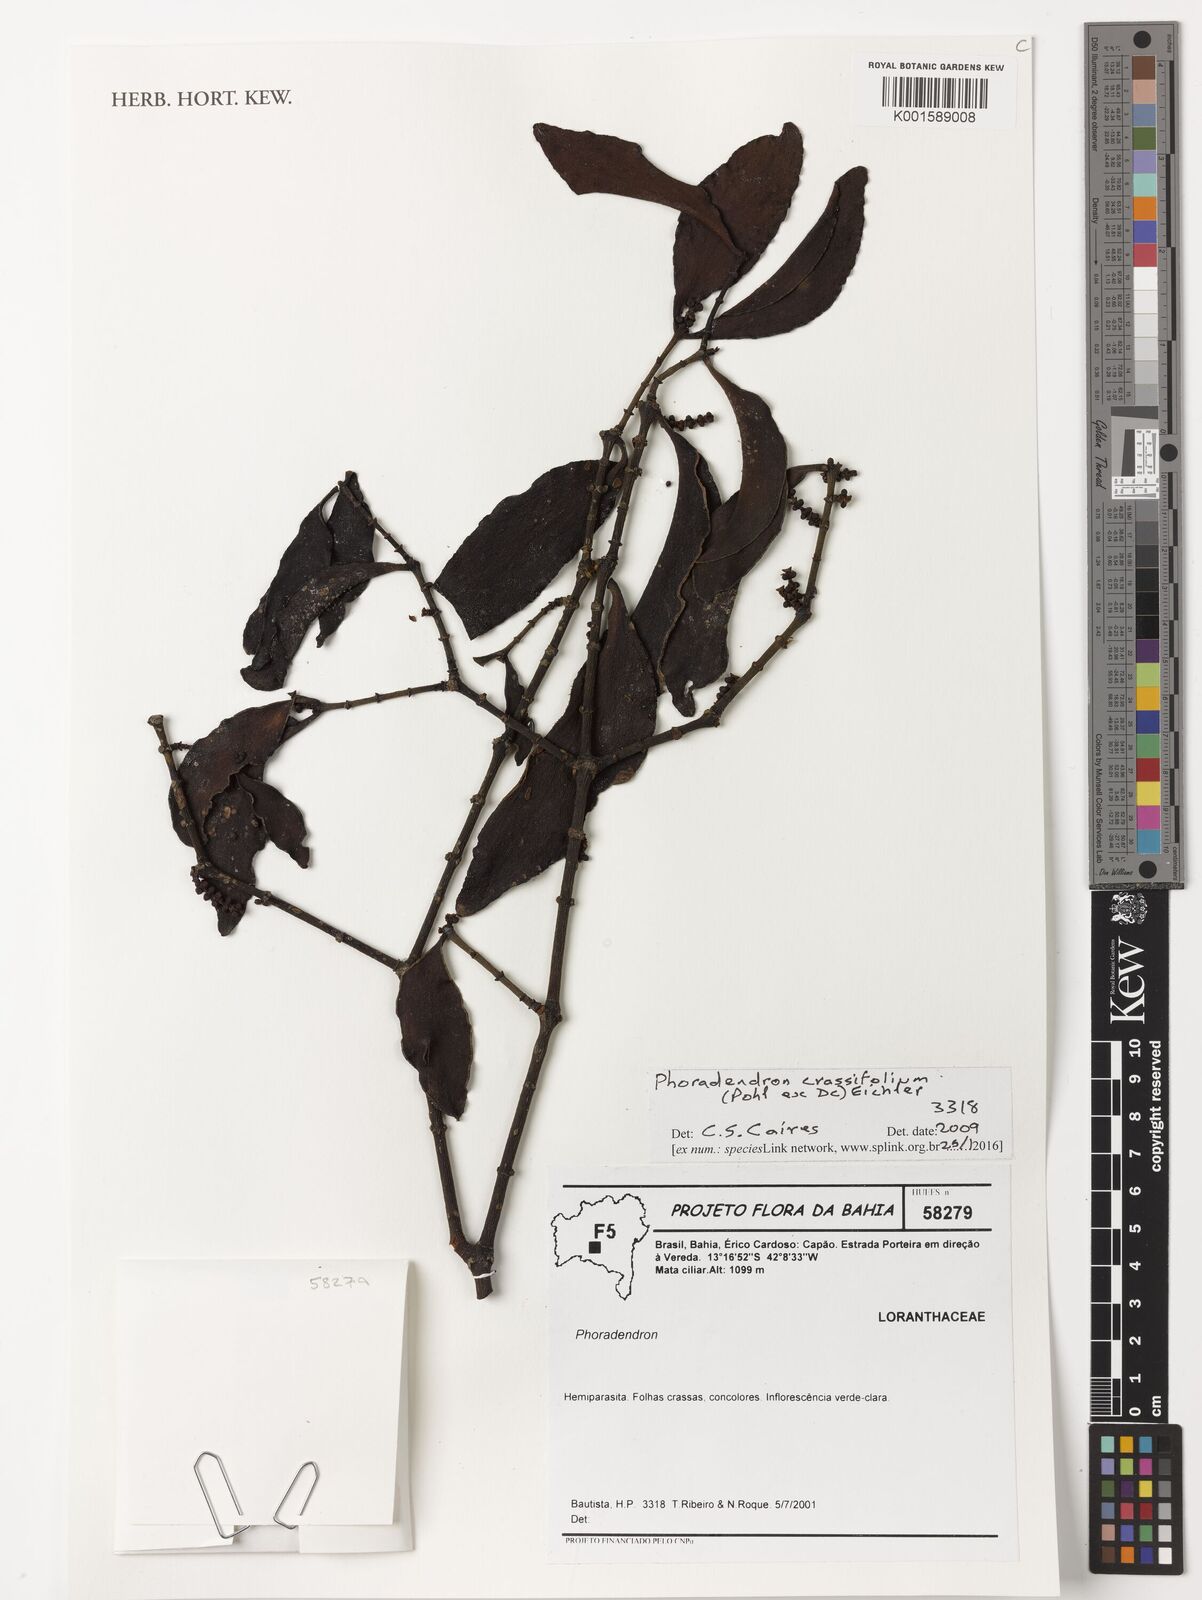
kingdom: Plantae
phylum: Tracheophyta
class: Magnoliopsida
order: Santalales
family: Viscaceae
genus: Phoradendron
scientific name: Phoradendron crassifolium
